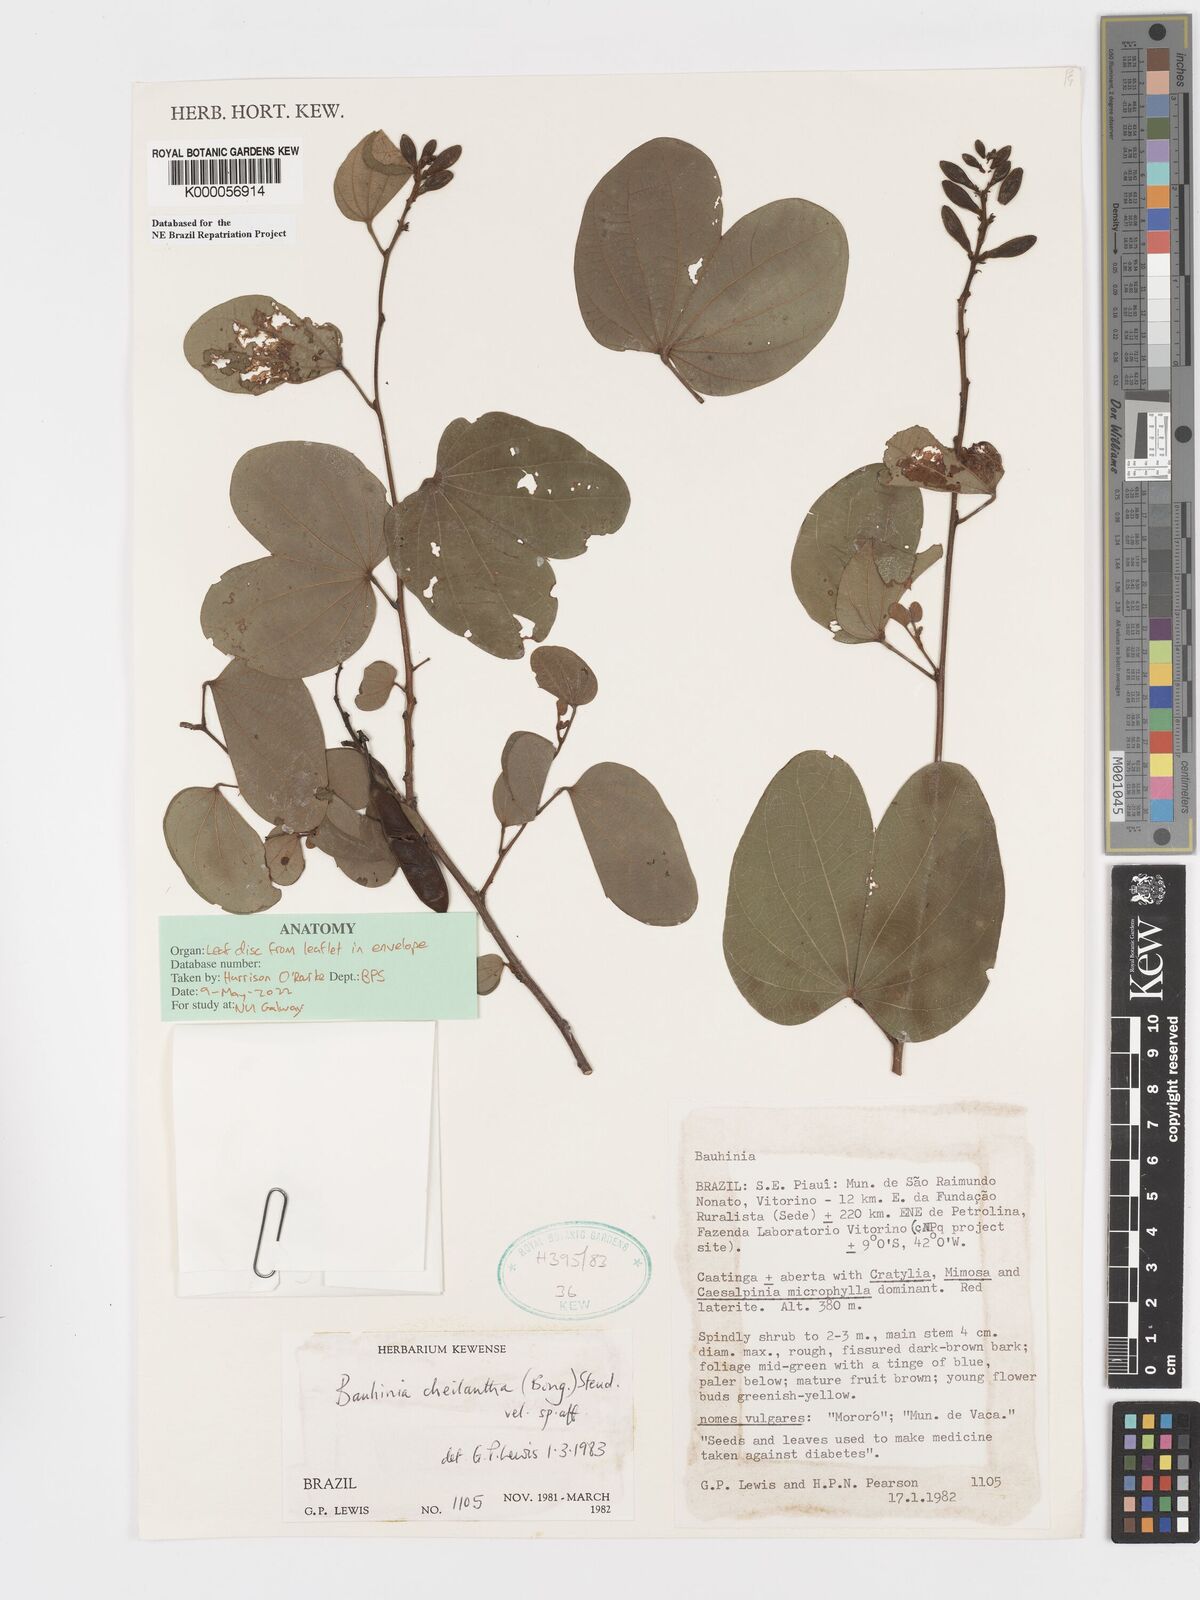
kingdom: Plantae
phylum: Tracheophyta
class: Magnoliopsida
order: Fabales
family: Fabaceae
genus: Bauhinia
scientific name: Bauhinia cheilantha
